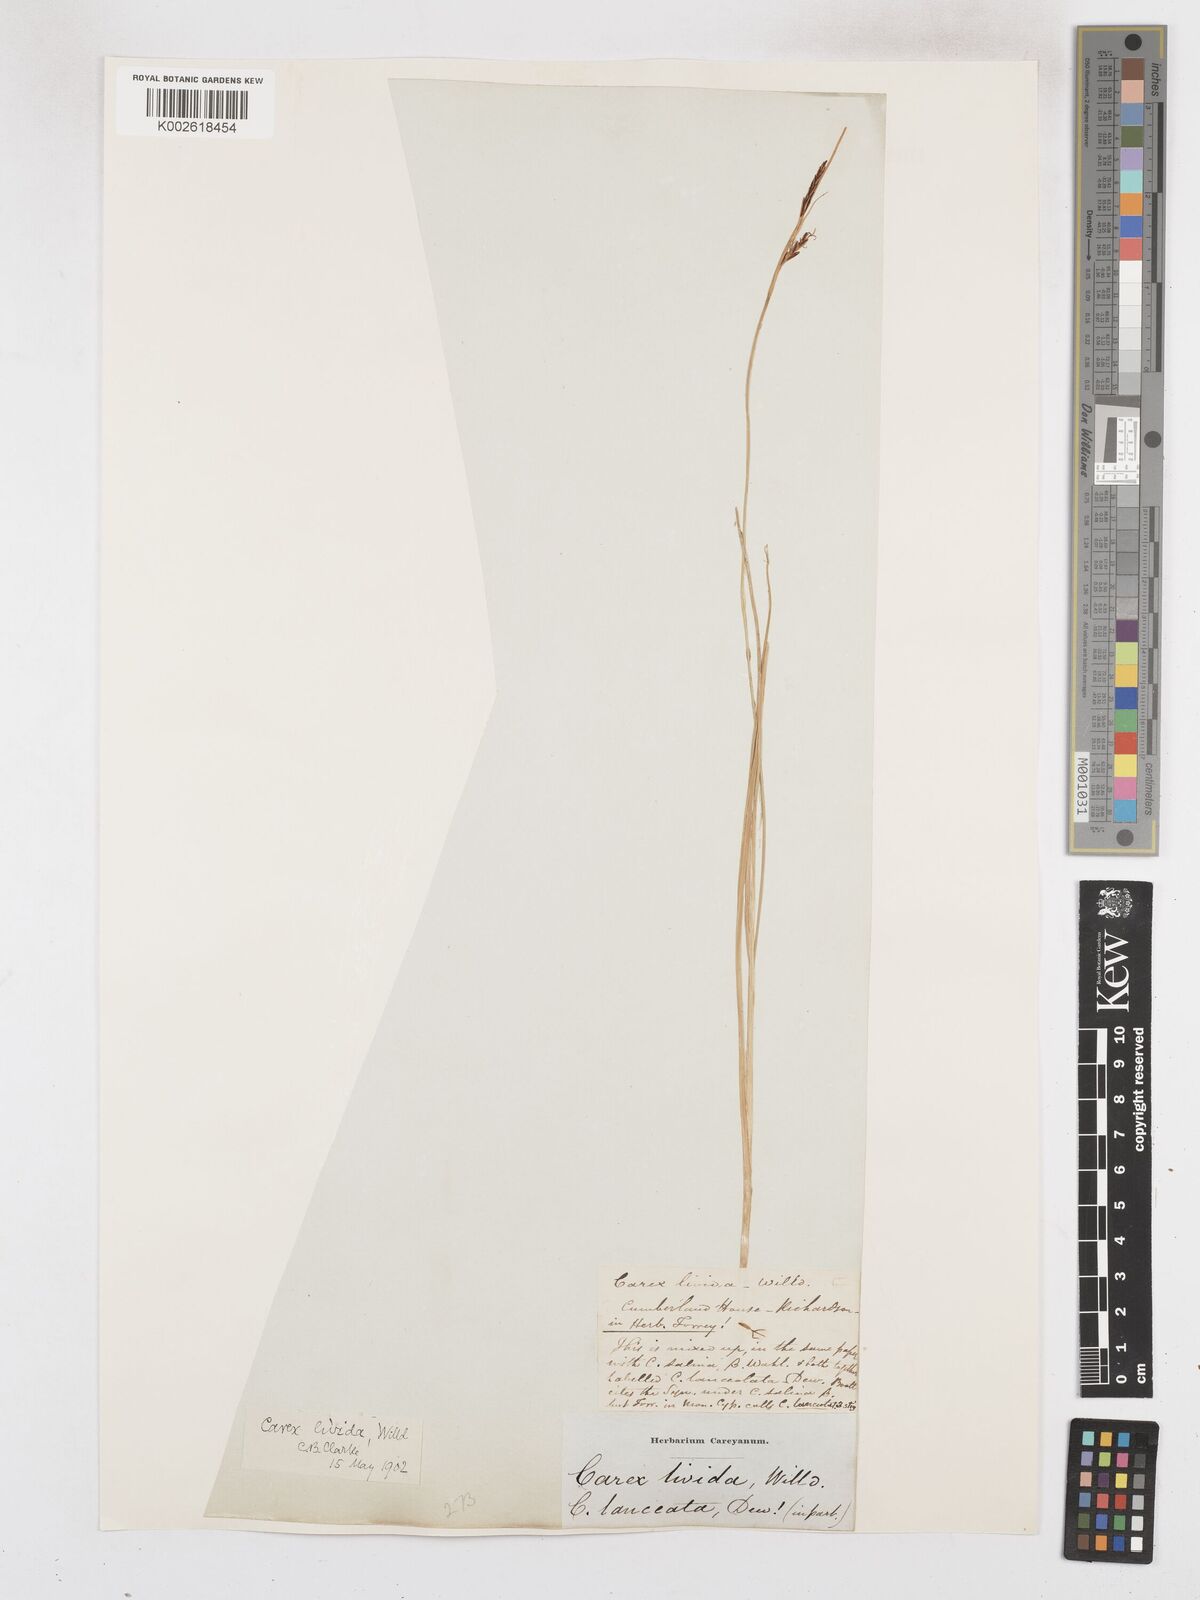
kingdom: Plantae
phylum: Tracheophyta
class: Liliopsida
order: Poales
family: Cyperaceae
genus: Carex
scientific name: Carex livida
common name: Livid sedge
